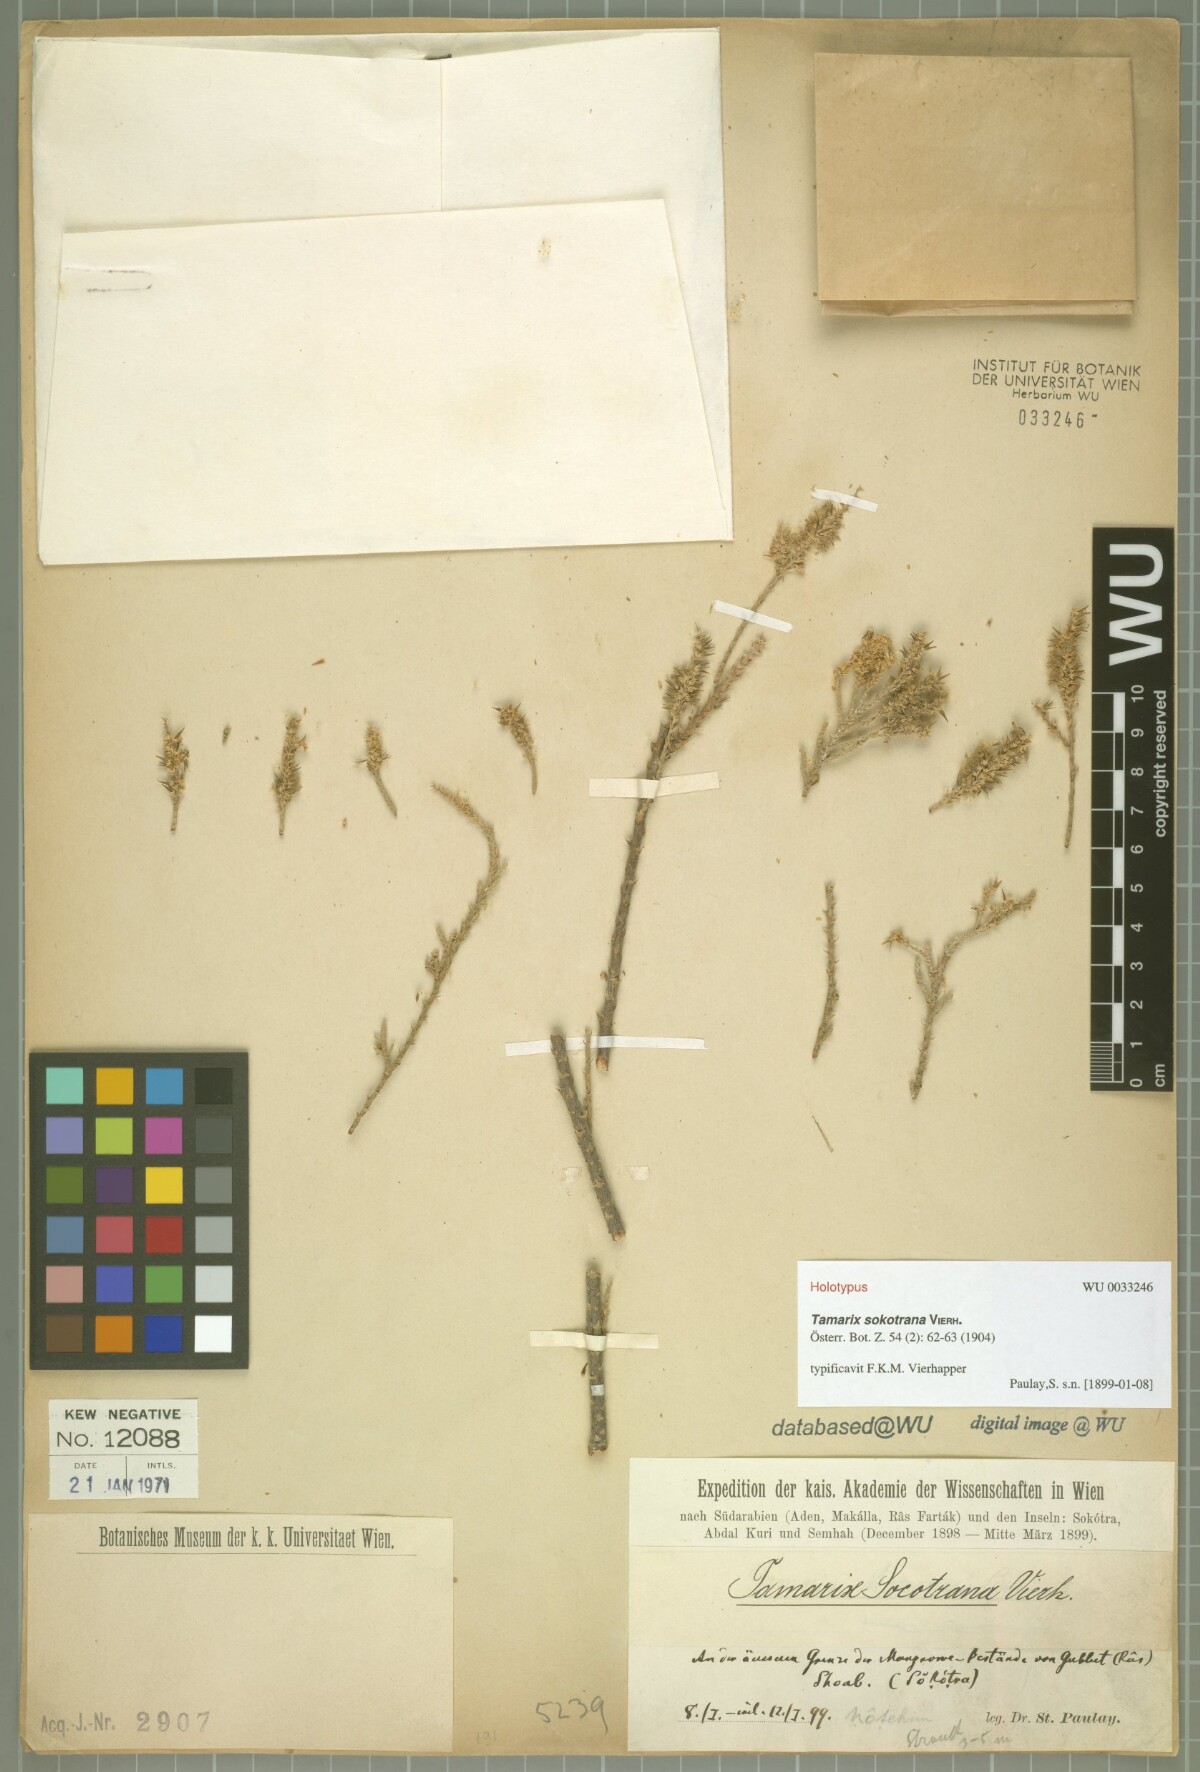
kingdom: Plantae
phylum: Tracheophyta
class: Magnoliopsida
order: Caryophyllales
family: Tamaricaceae
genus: Tamarix
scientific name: Tamarix nilotica
